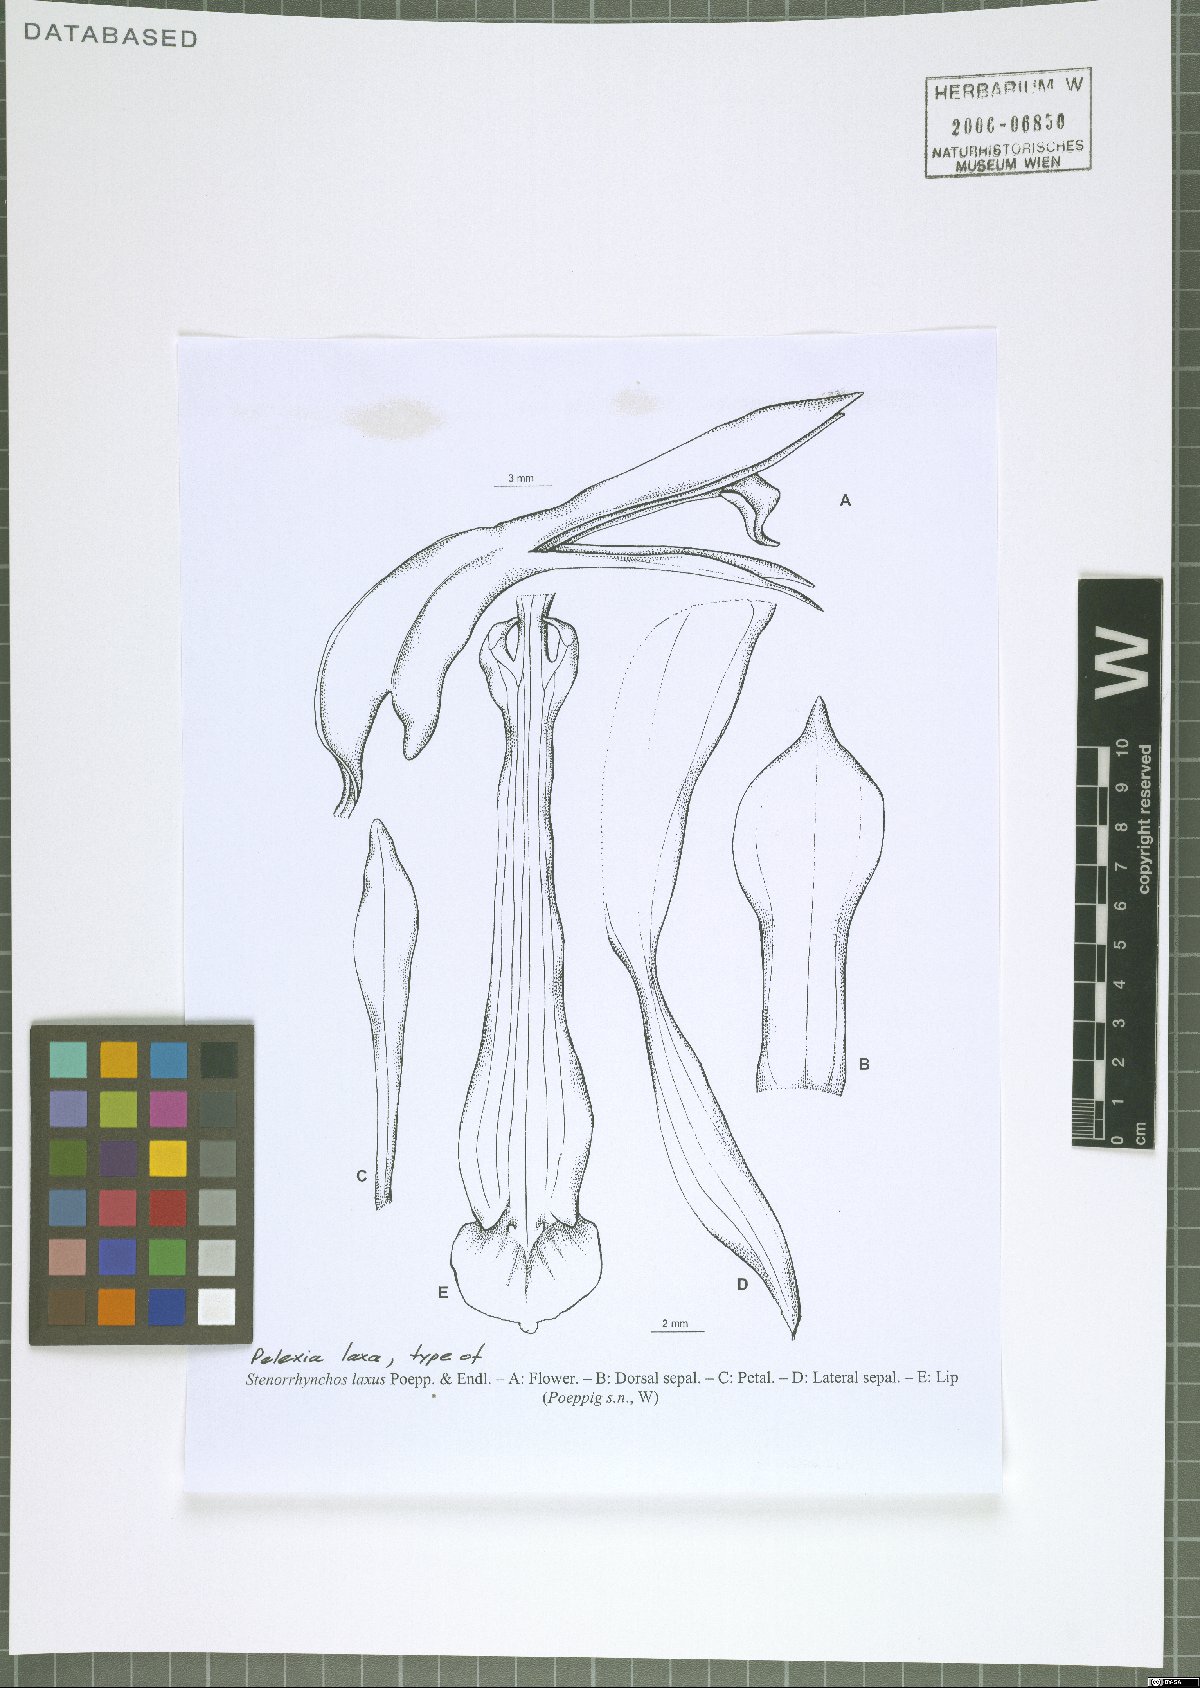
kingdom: Plantae
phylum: Tracheophyta
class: Liliopsida
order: Asparagales
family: Orchidaceae
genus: Pelexia
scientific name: Pelexia laxa
